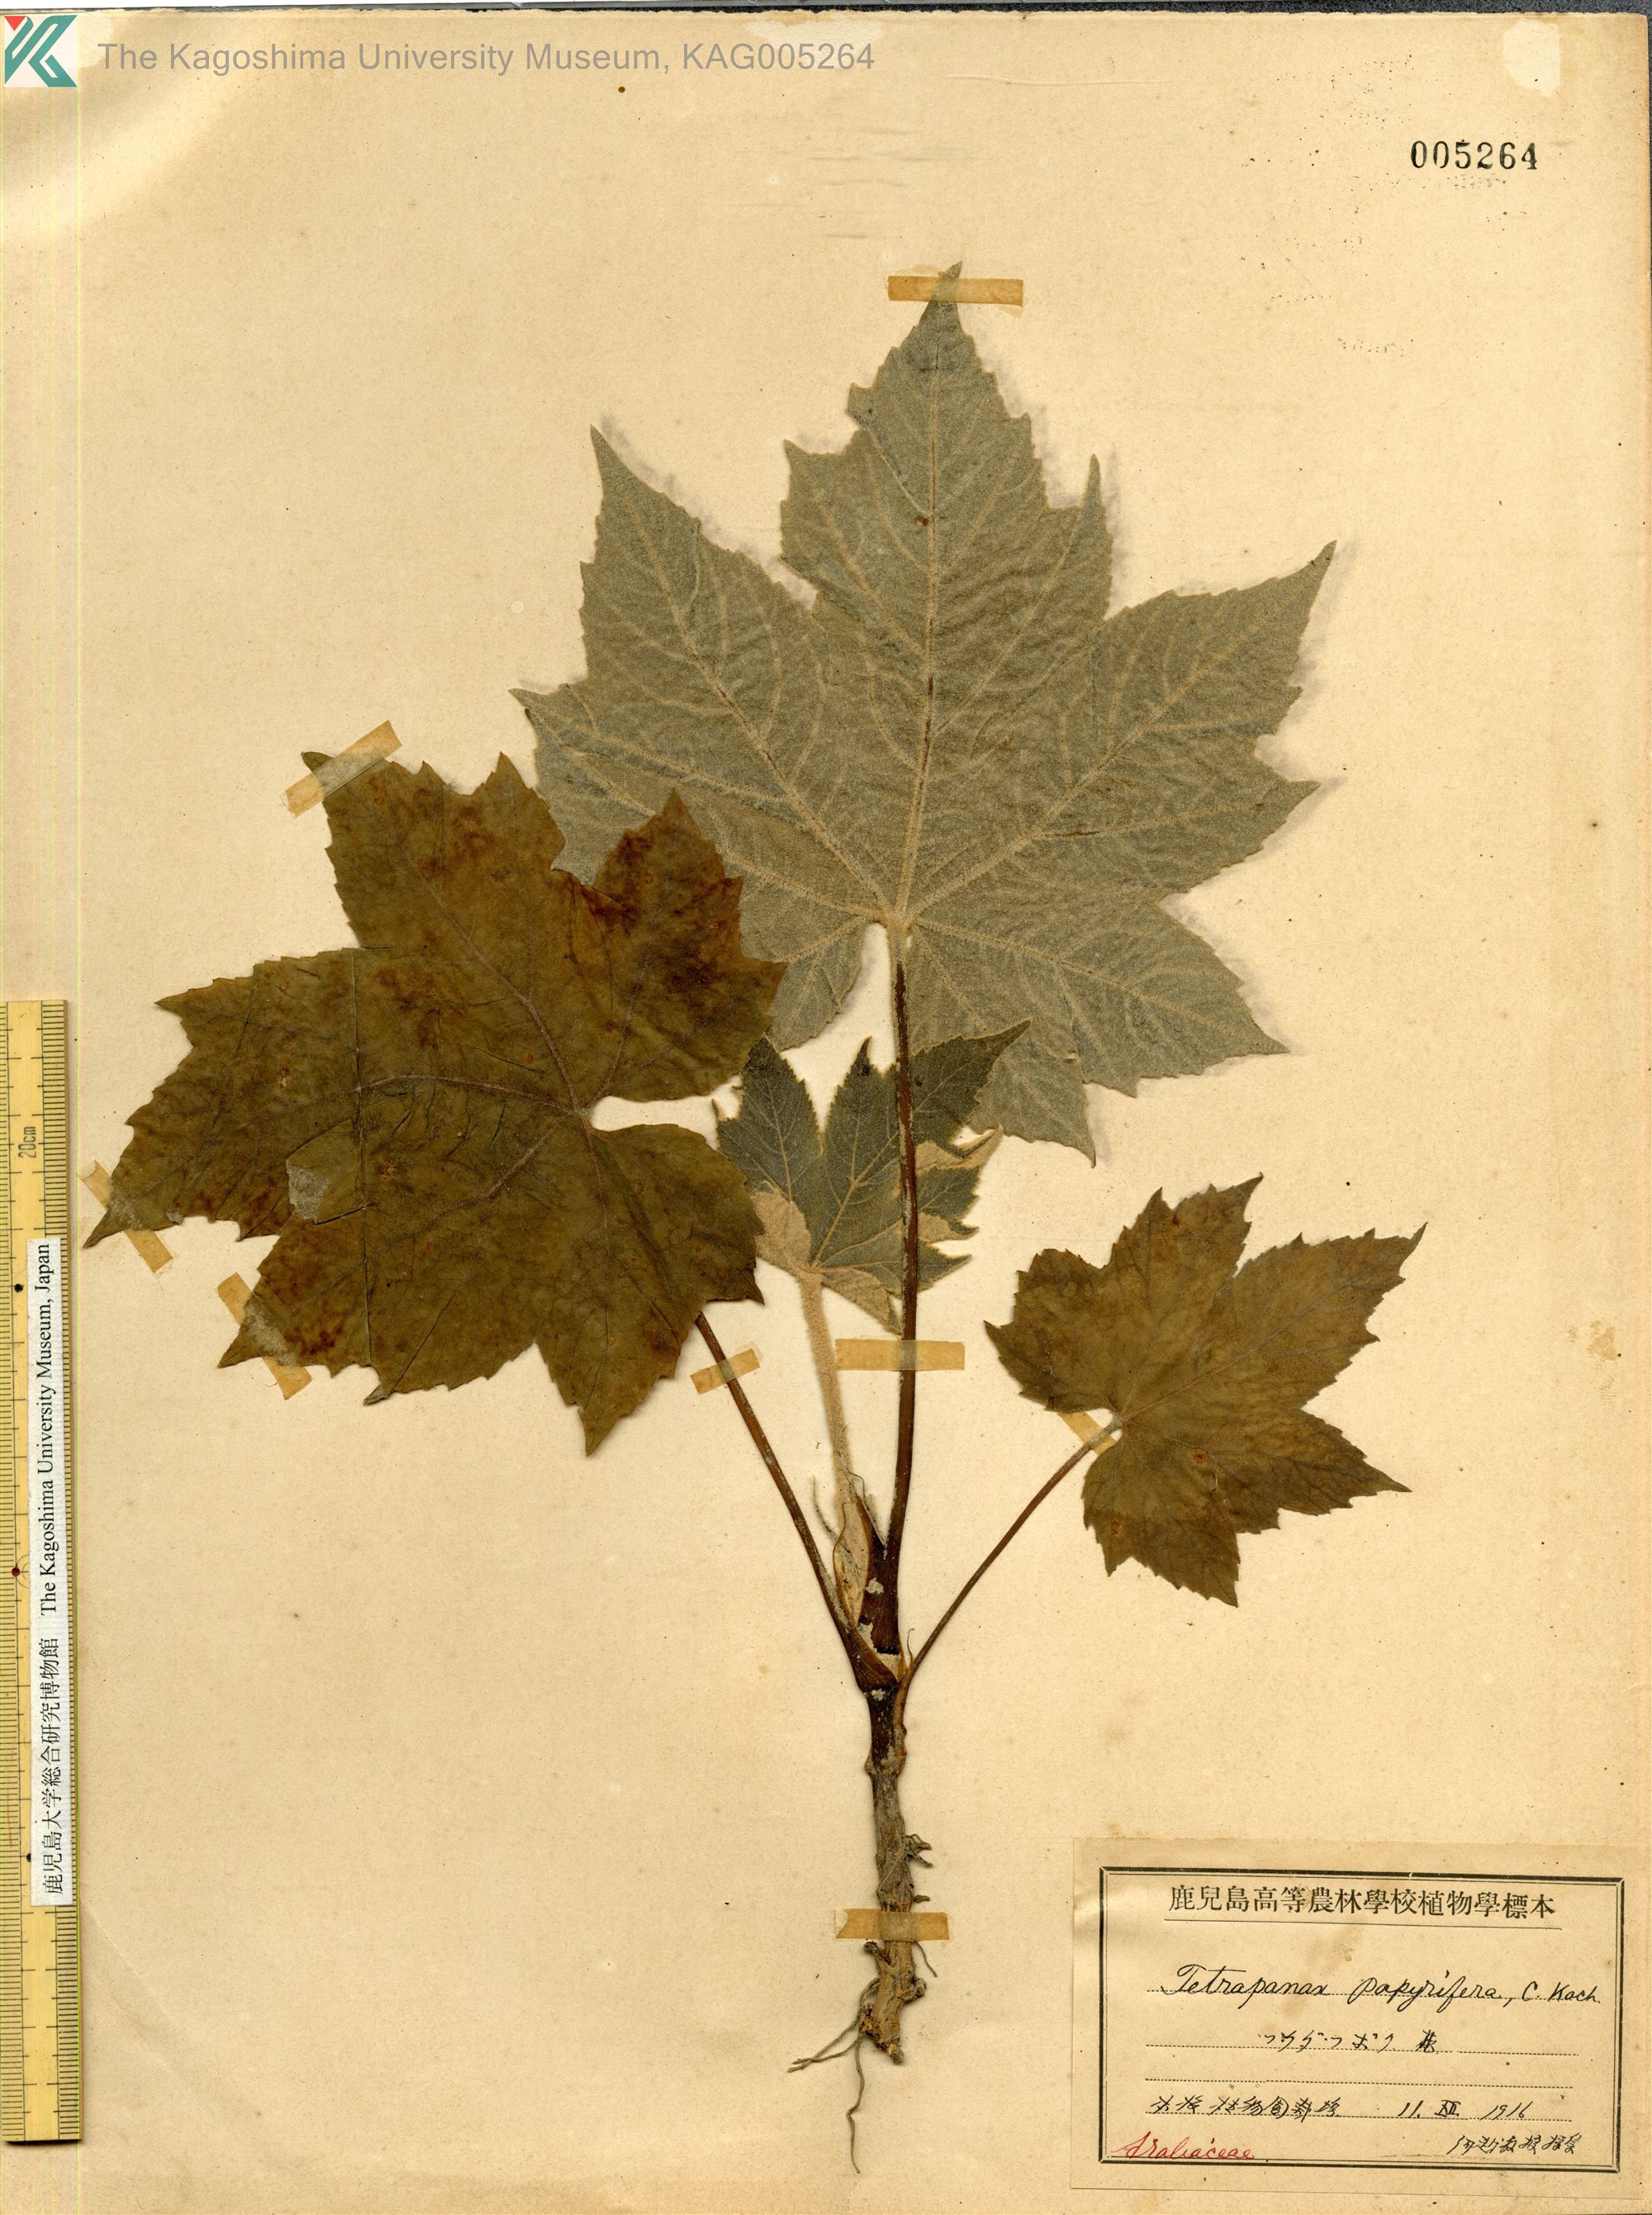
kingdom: Plantae
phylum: Tracheophyta
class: Magnoliopsida
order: Apiales
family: Araliaceae
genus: Tetrapanax
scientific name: Tetrapanax papyrifer
